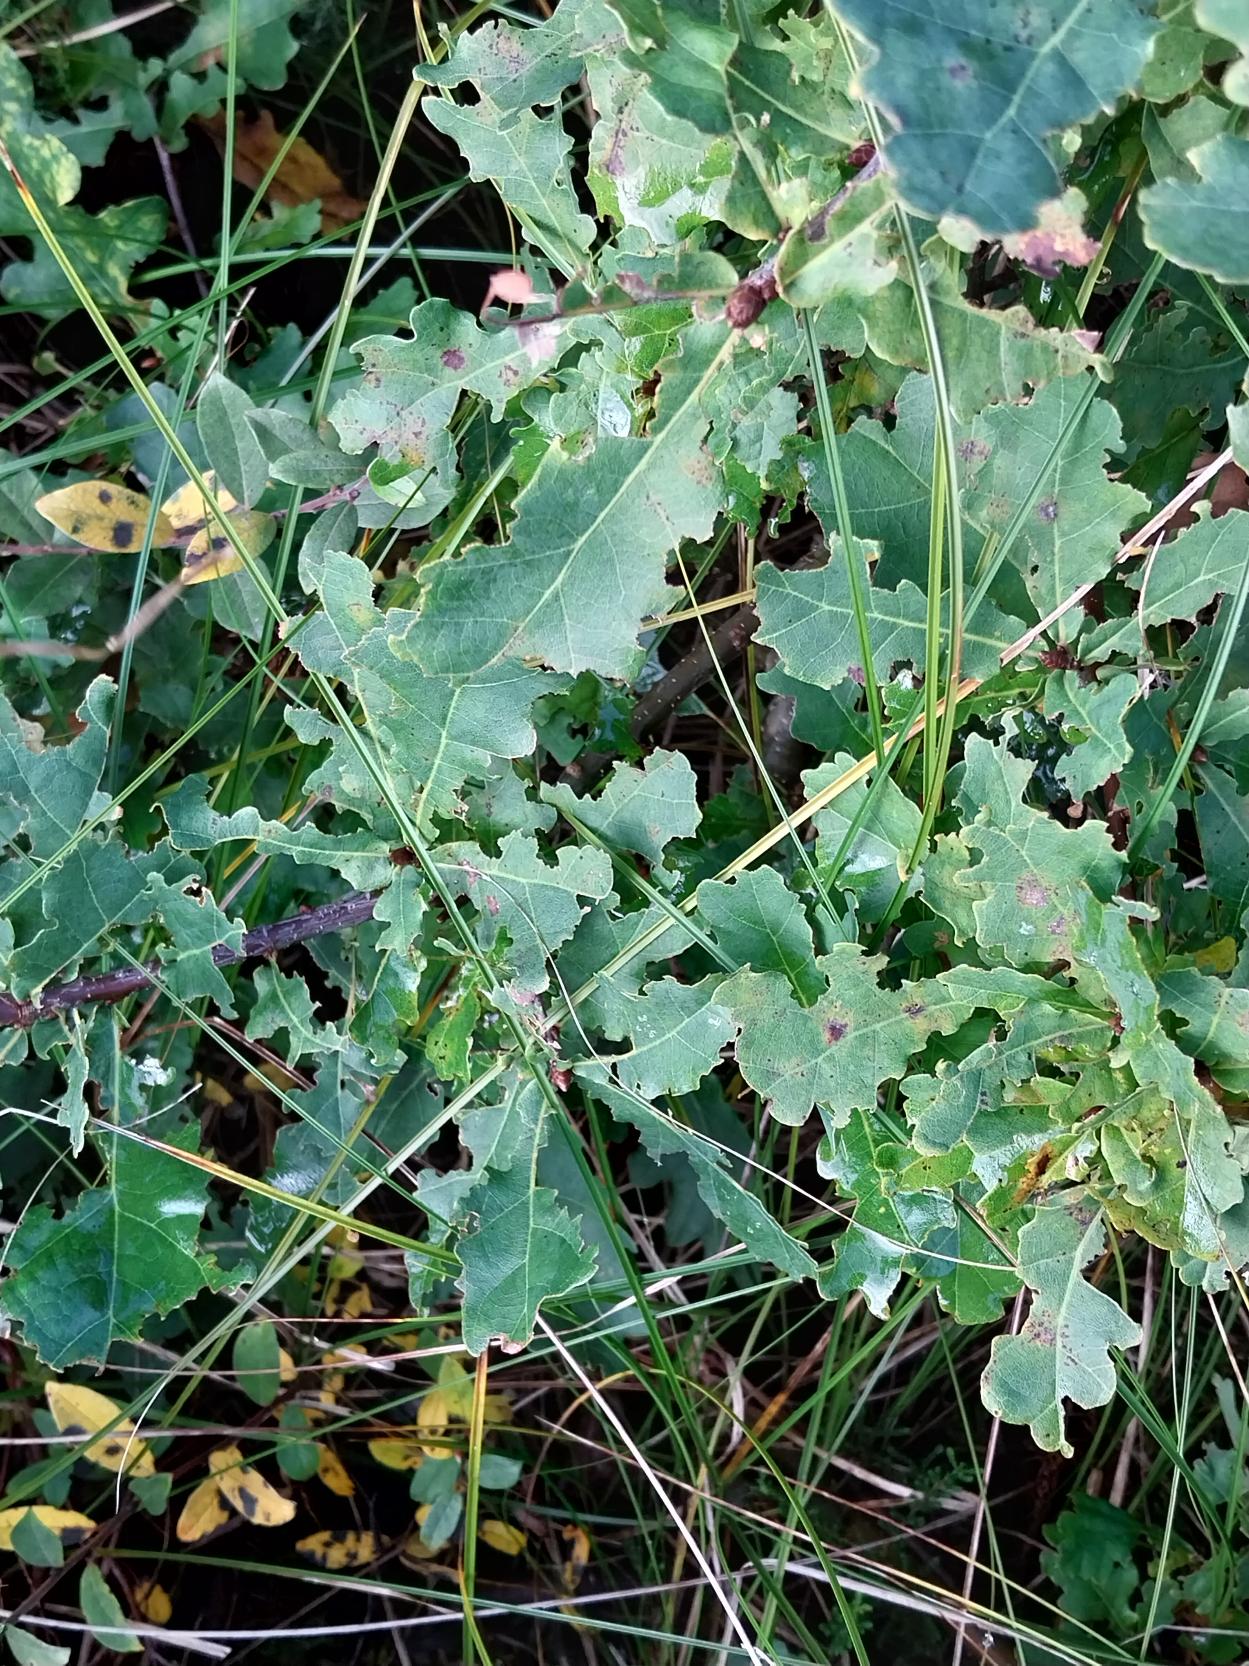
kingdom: Plantae
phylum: Tracheophyta
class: Magnoliopsida
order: Fagales
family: Fagaceae
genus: Quercus
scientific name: Quercus robur
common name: Stilk-eg/almindelig eg
